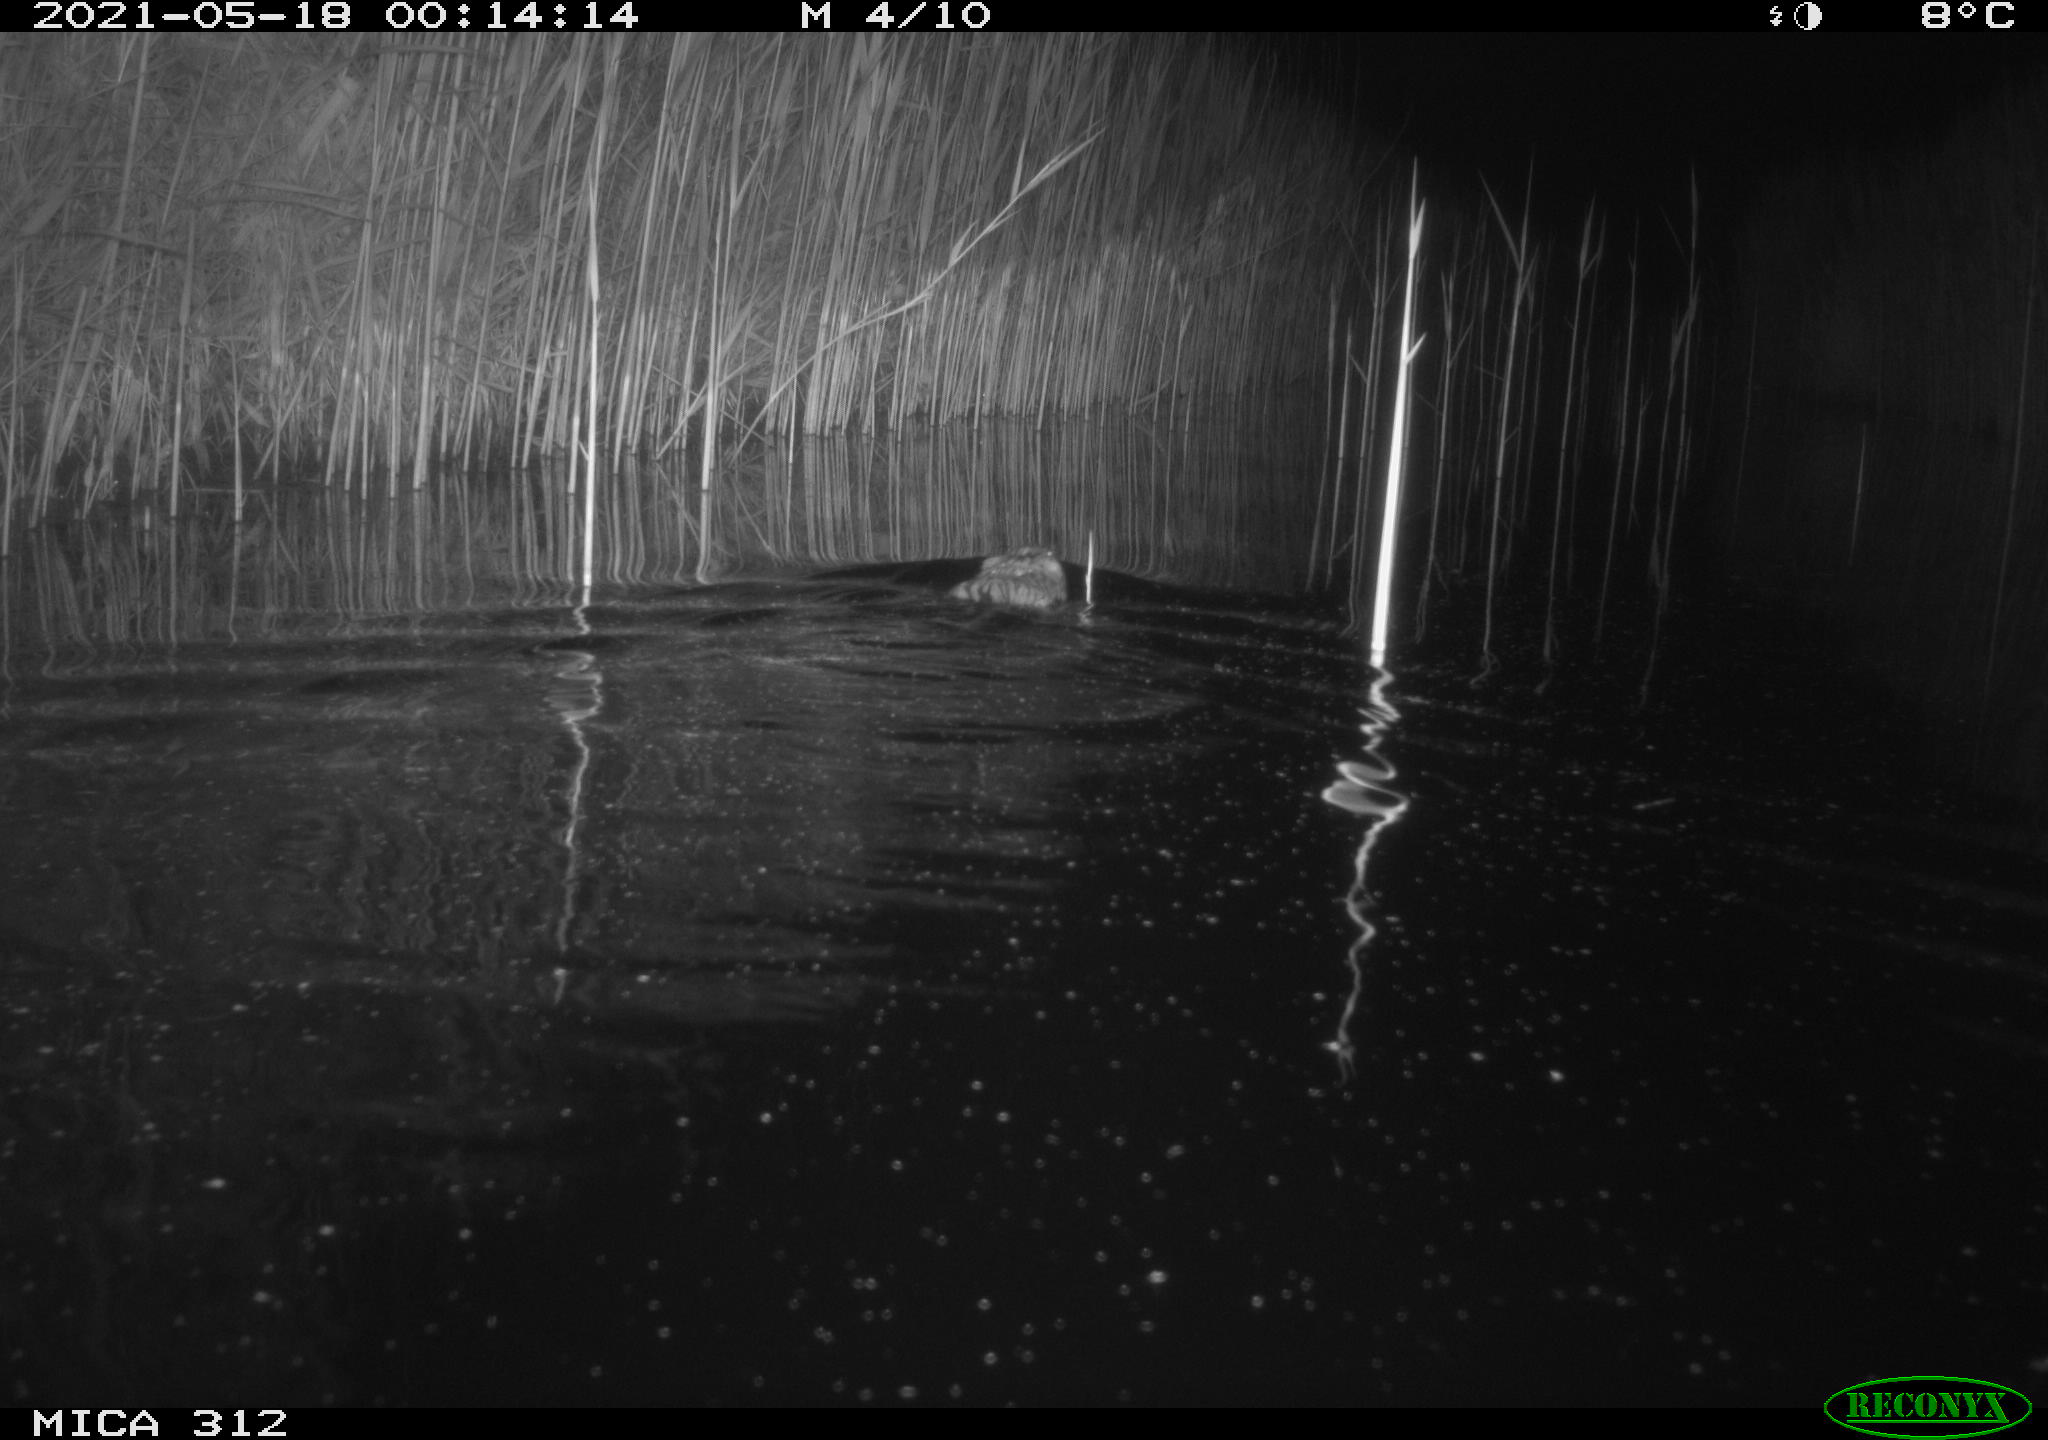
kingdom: Animalia
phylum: Chordata
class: Mammalia
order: Rodentia
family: Cricetidae
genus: Ondatra
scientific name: Ondatra zibethicus
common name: Muskrat
